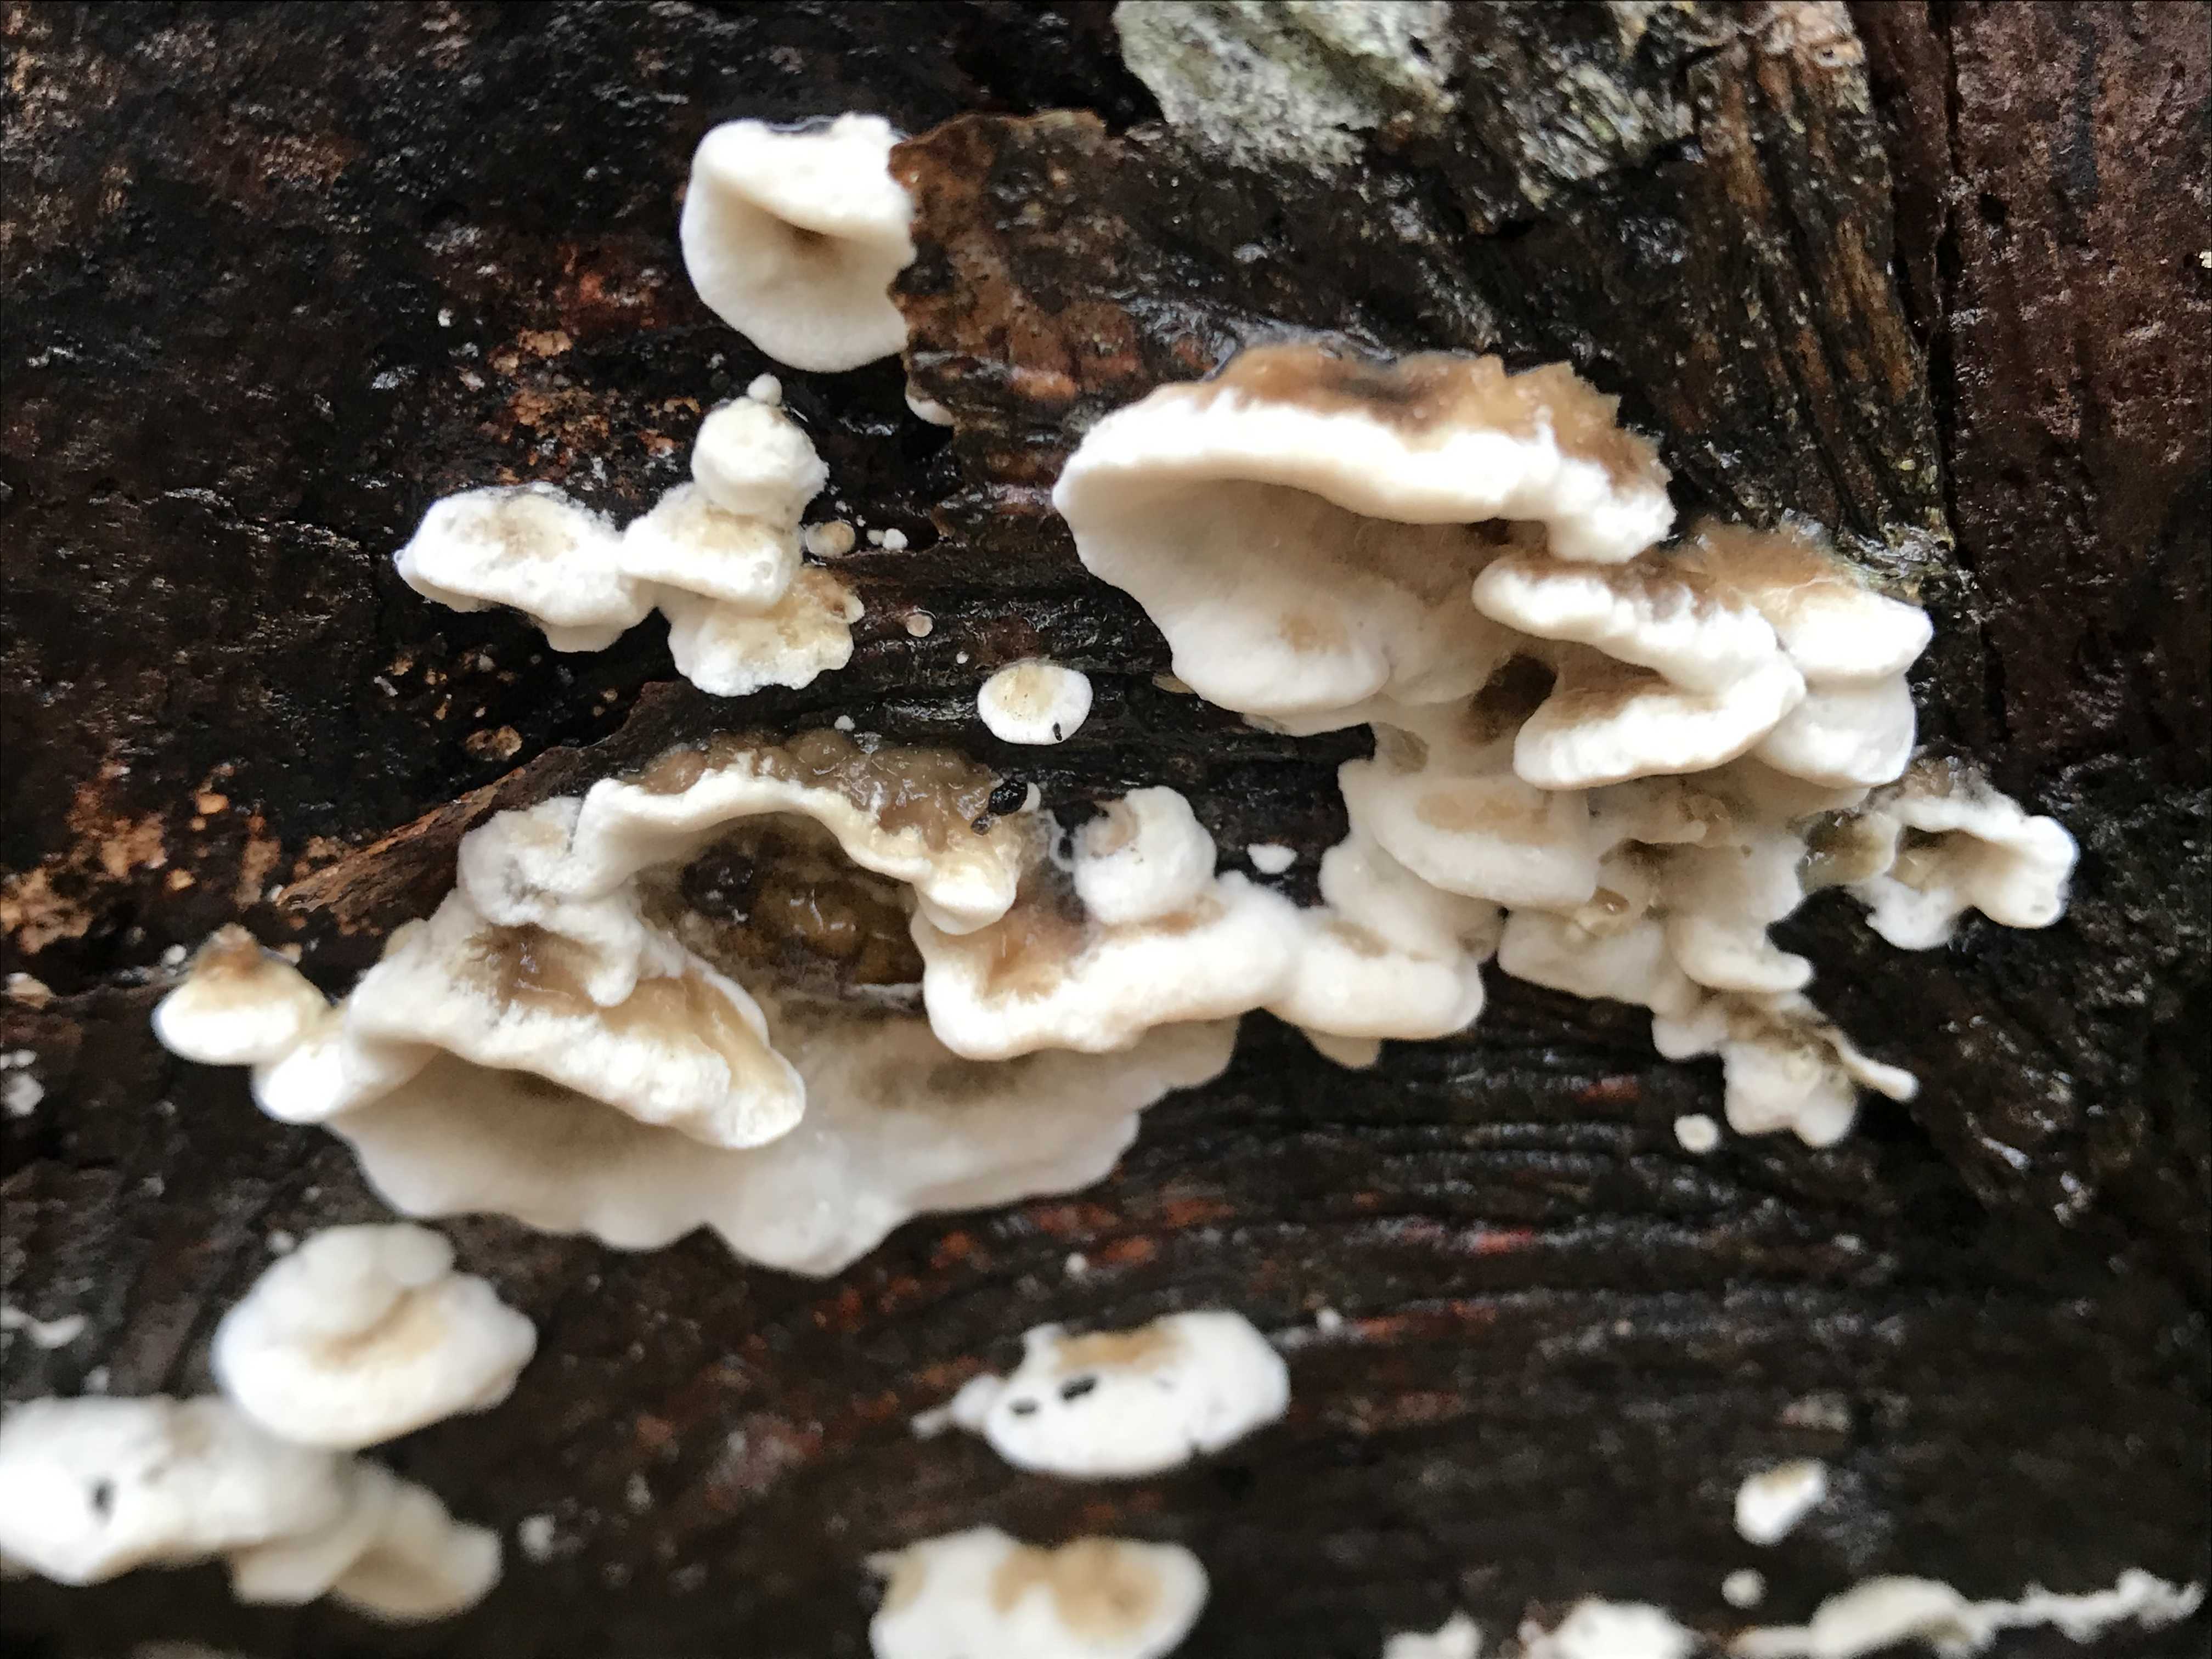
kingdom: Fungi
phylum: Basidiomycota
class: Agaricomycetes
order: Polyporales
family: Phanerochaetaceae
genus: Bjerkandera
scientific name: Bjerkandera adusta
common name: sveden sodporesvamp
